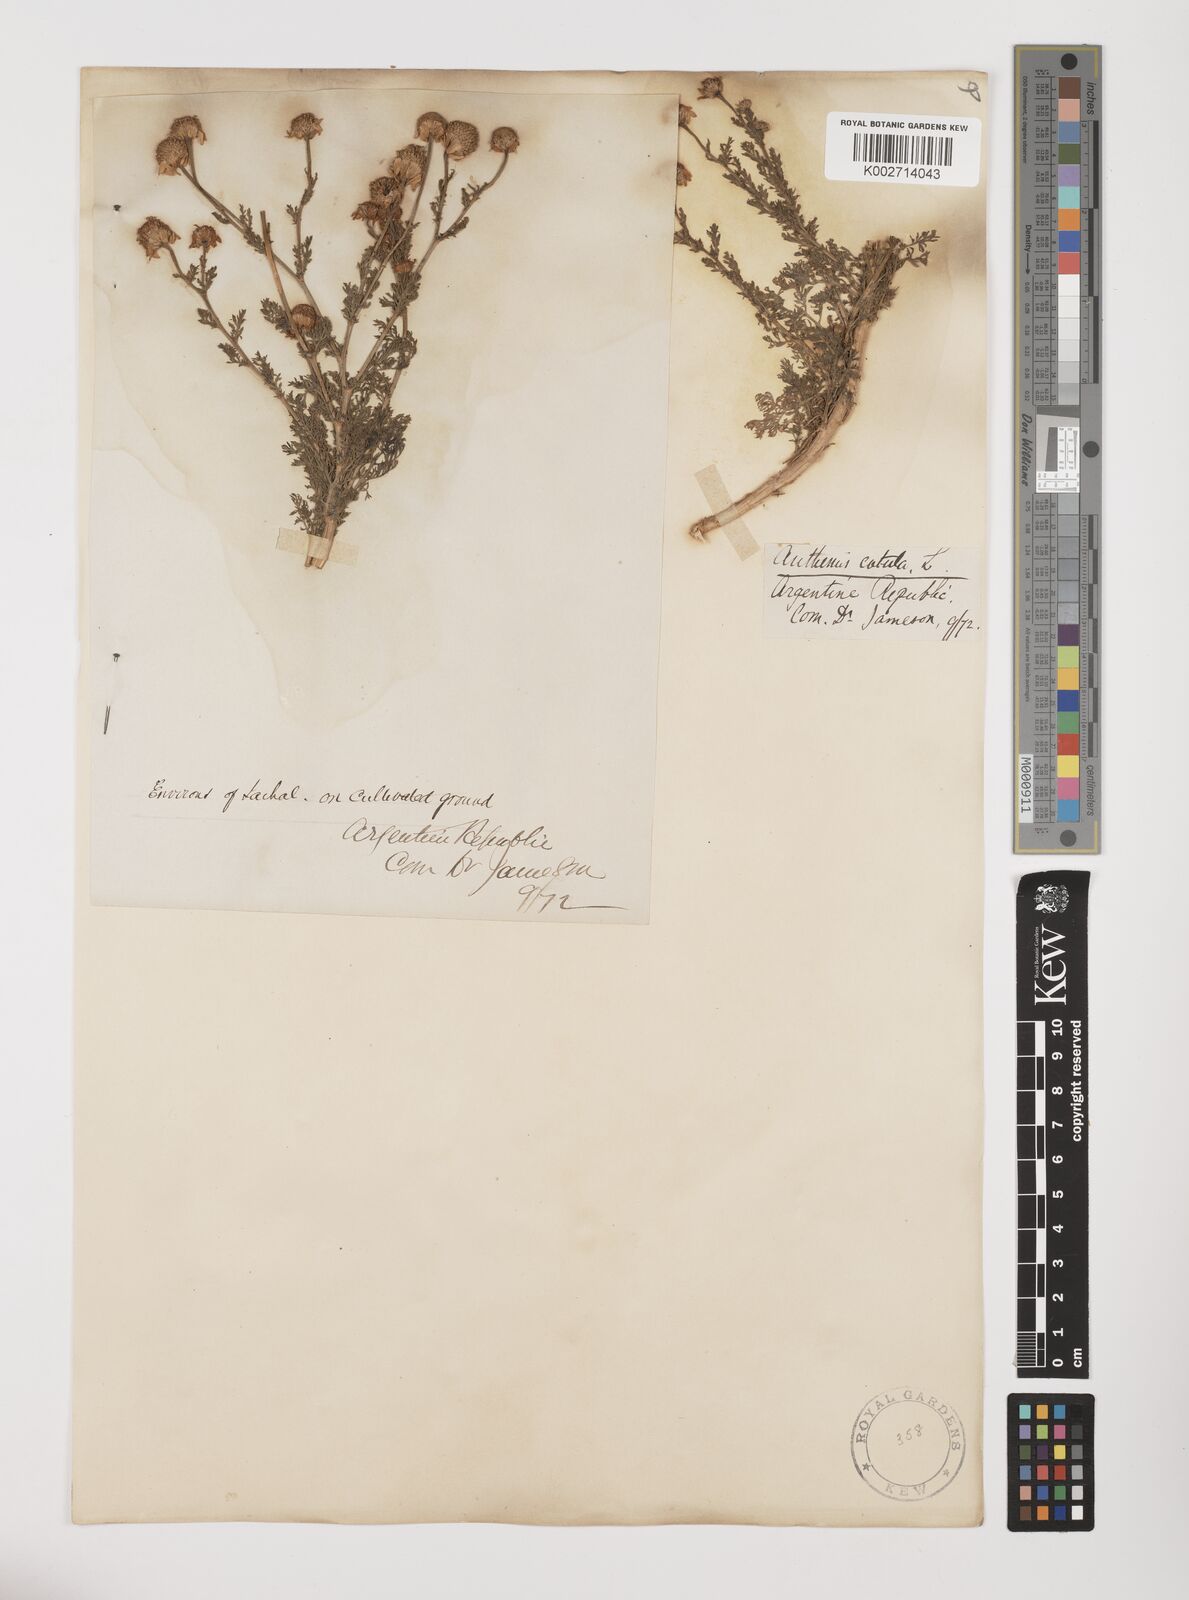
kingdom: Plantae
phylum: Tracheophyta
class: Magnoliopsida
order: Asterales
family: Asteraceae
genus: Anthemis
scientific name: Anthemis cotula
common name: Stinking chamomile
